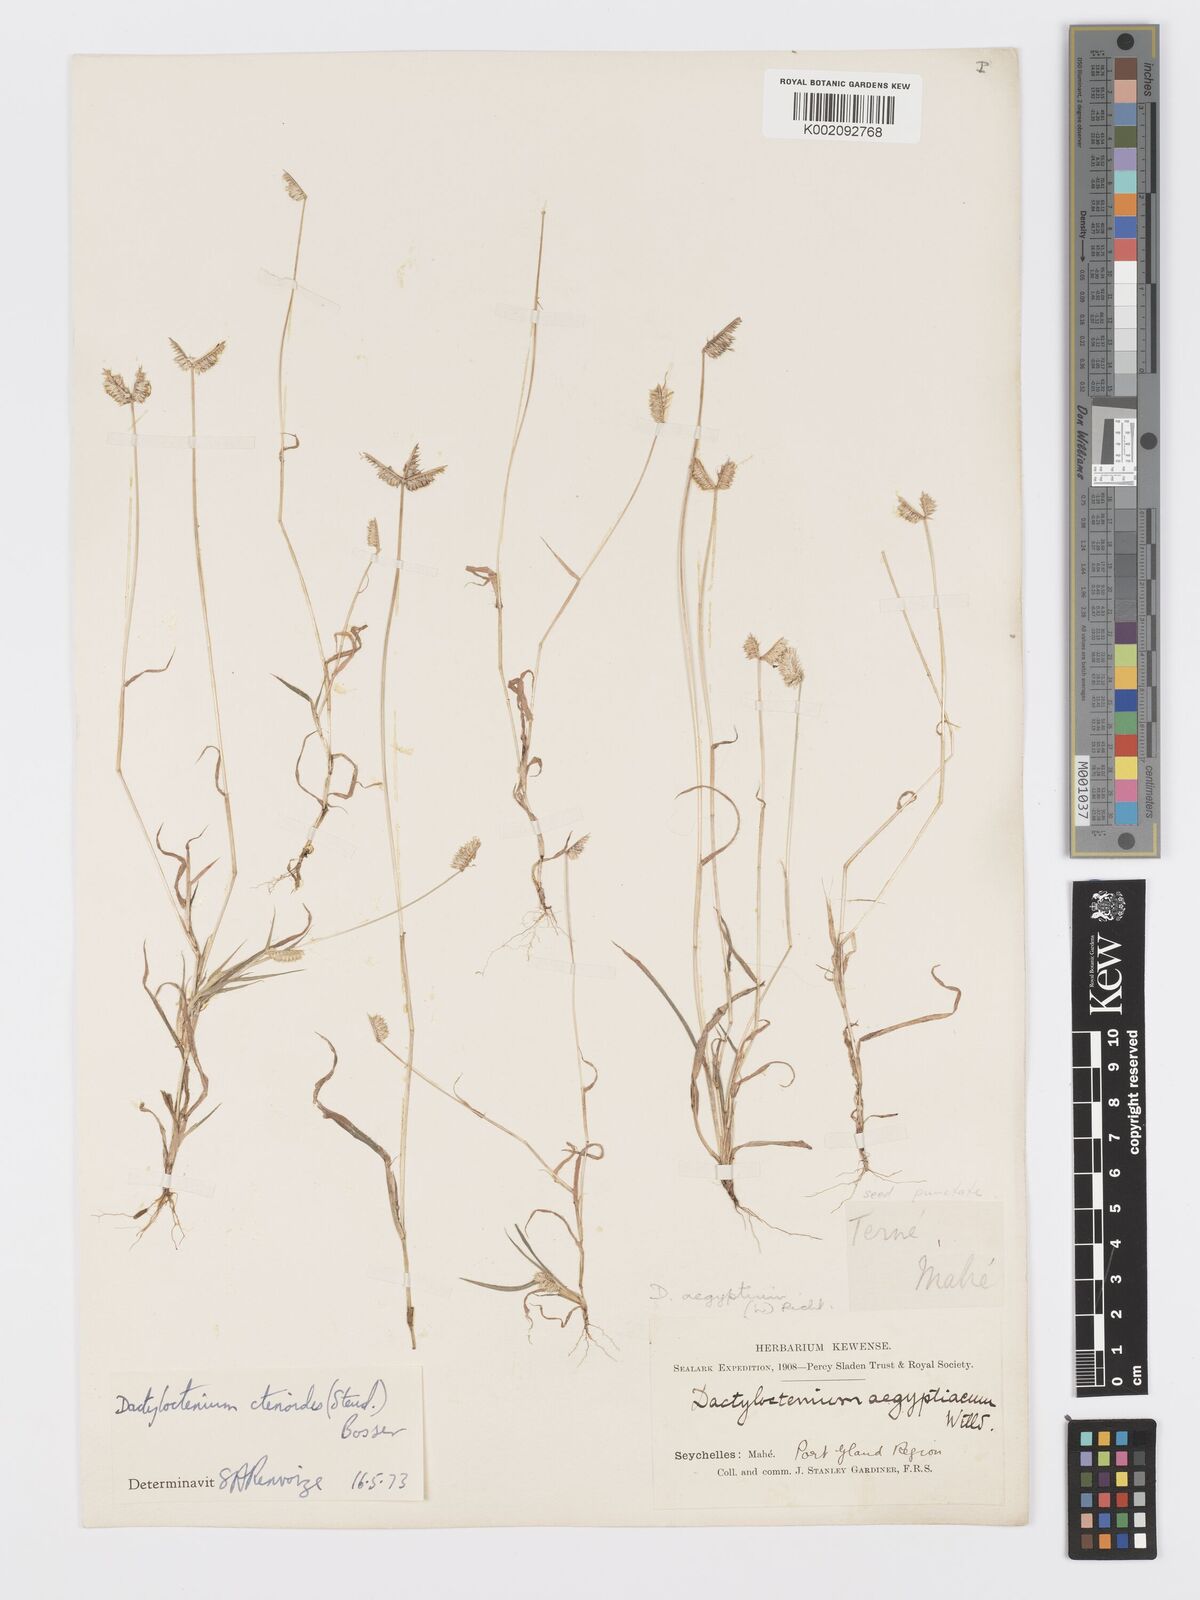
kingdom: Plantae
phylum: Tracheophyta
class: Liliopsida
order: Poales
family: Poaceae
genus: Dactyloctenium
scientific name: Dactyloctenium ctenoides
